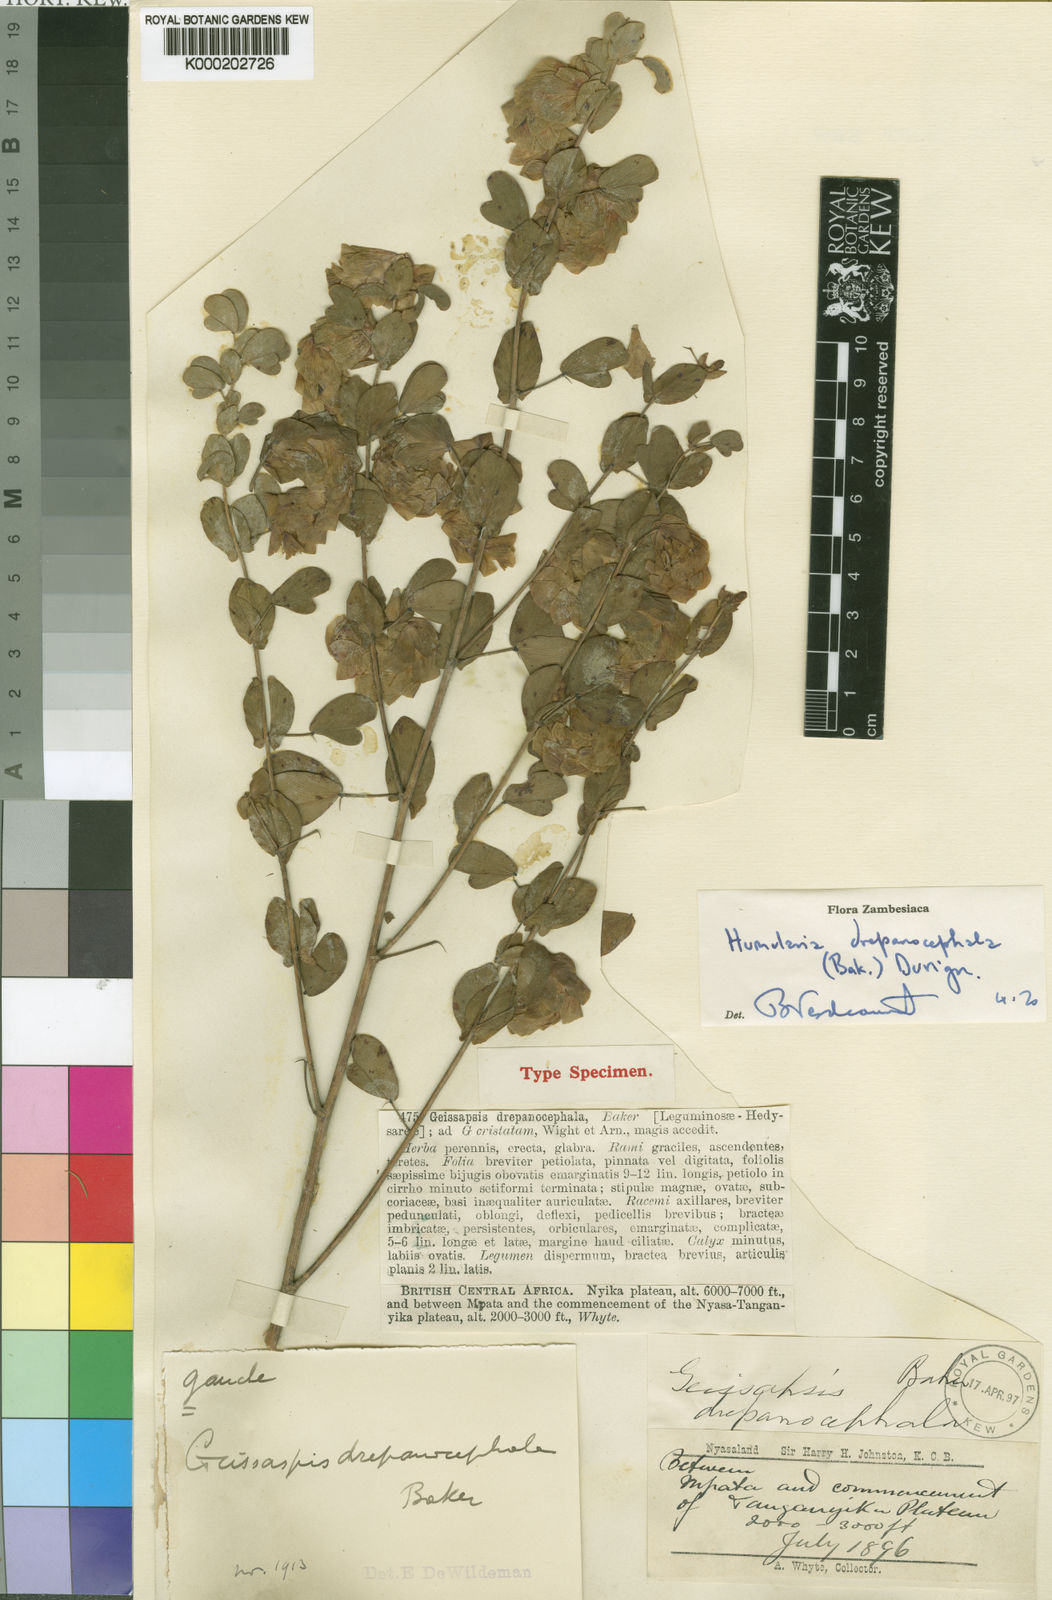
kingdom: Plantae
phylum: Tracheophyta
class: Magnoliopsida
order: Fabales
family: Fabaceae
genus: Humularia
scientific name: Humularia drepanocephala
